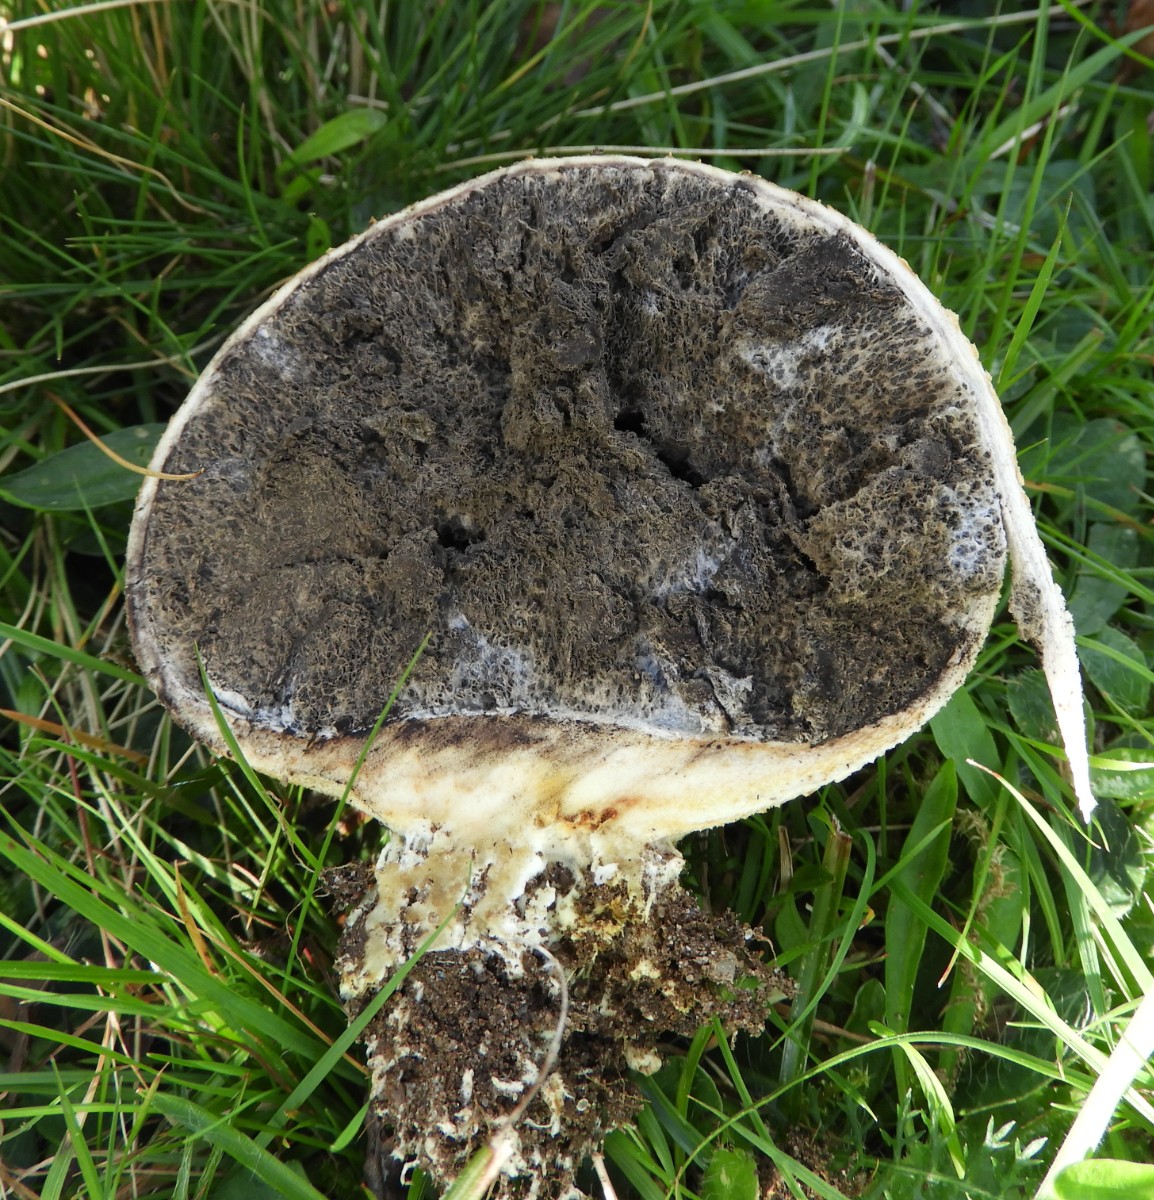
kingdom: Fungi
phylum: Basidiomycota
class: Agaricomycetes
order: Boletales
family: Sclerodermataceae
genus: Scleroderma
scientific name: Scleroderma citrinum
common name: almindelig bruskbold
